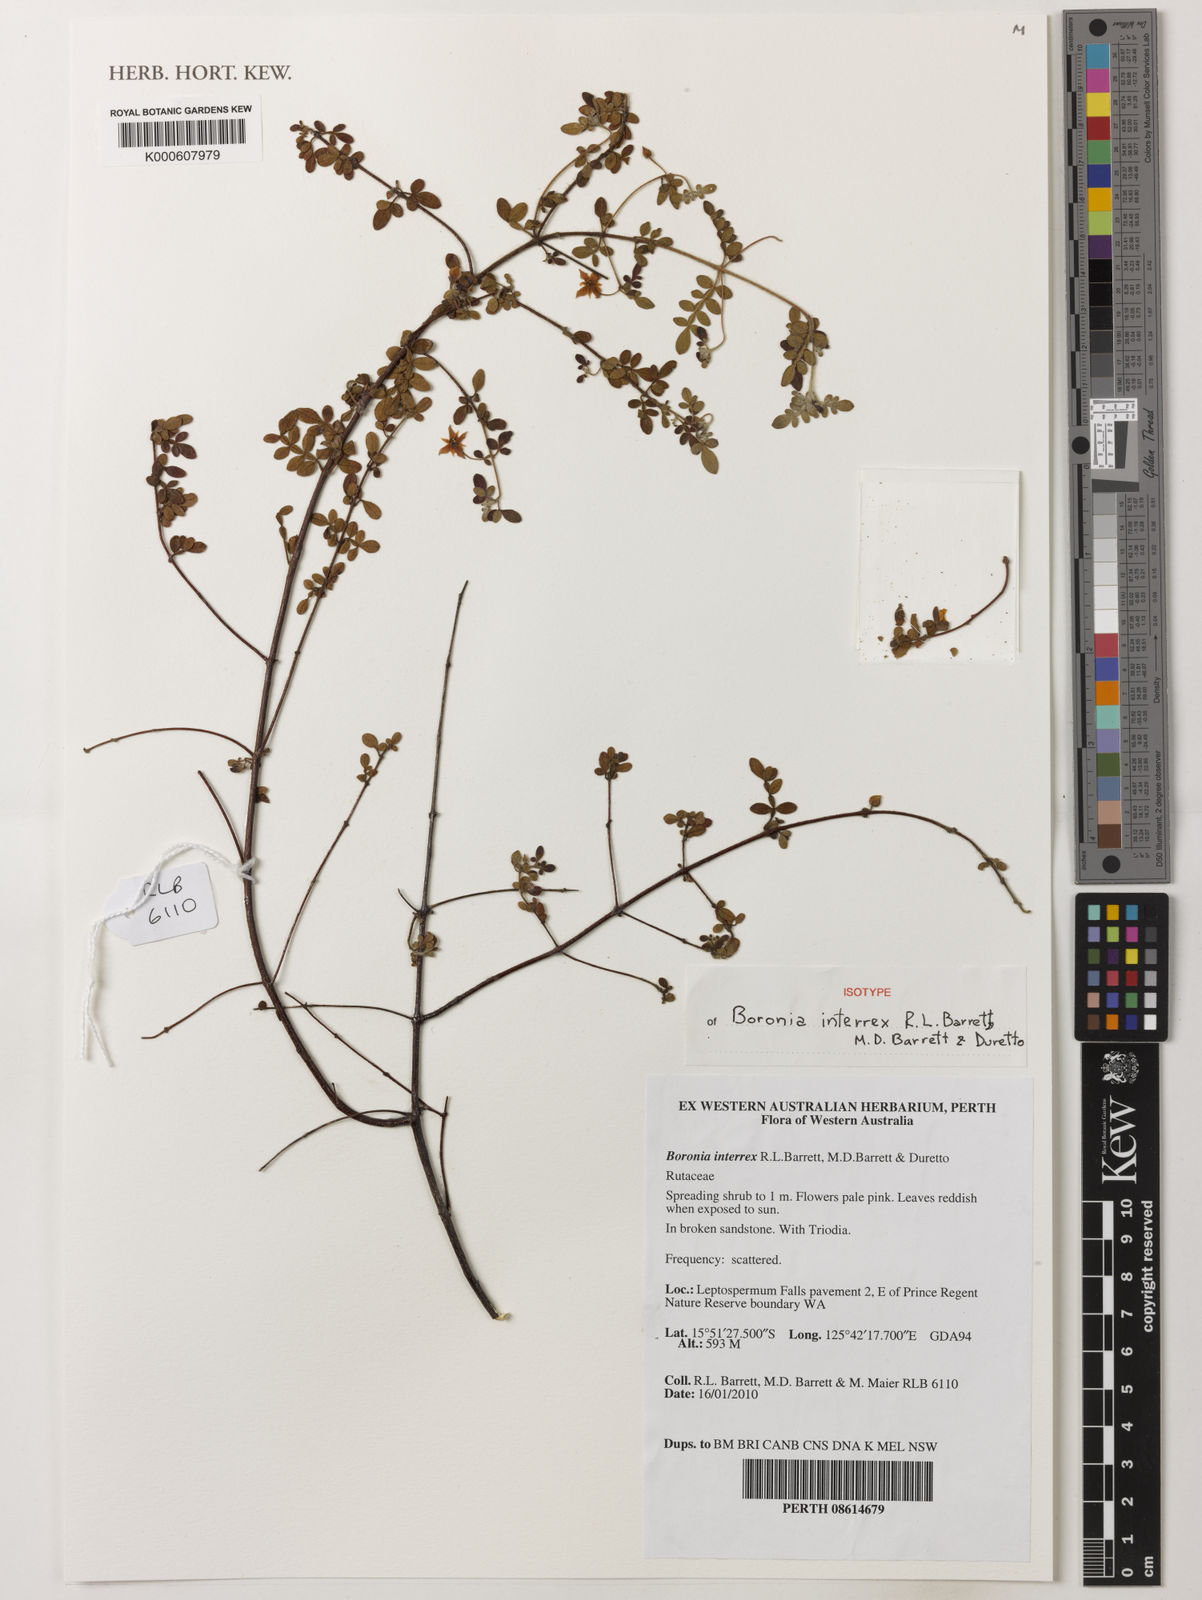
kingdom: Plantae
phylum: Tracheophyta
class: Magnoliopsida
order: Sapindales
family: Rutaceae
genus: Boronia
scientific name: Boronia interrex
